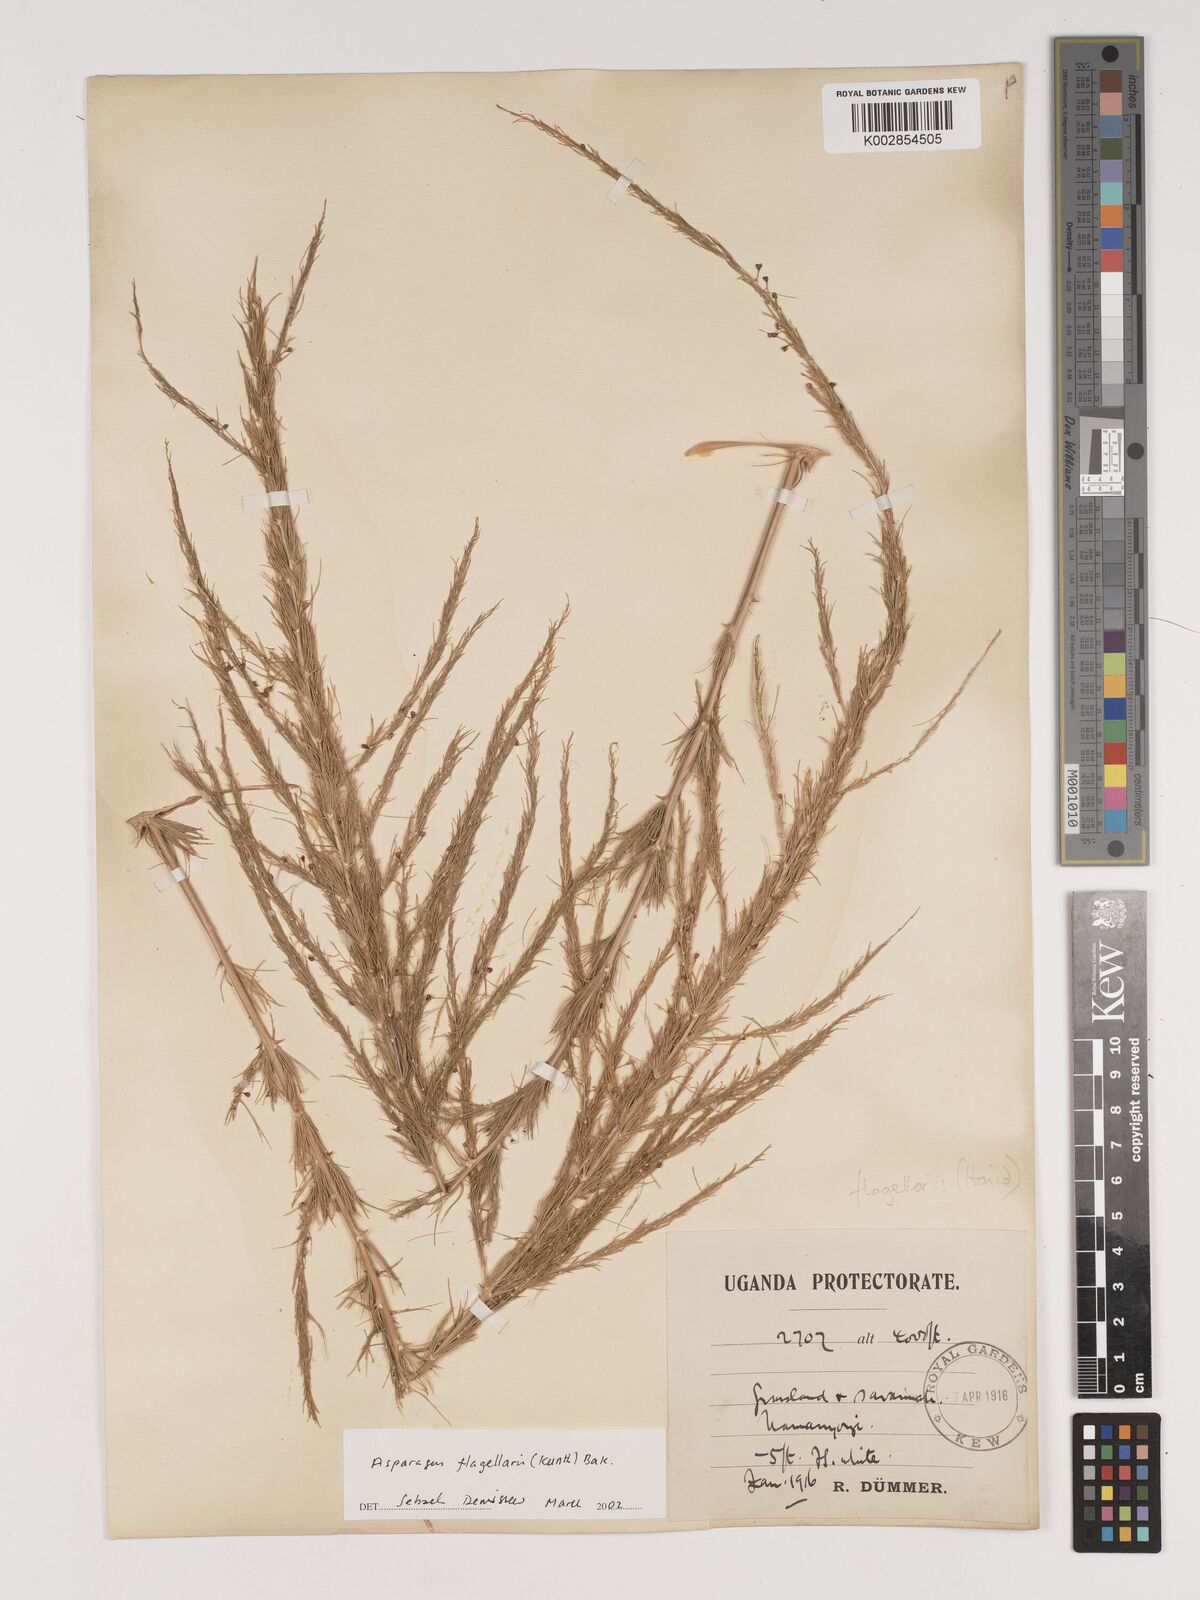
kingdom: Plantae
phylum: Tracheophyta
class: Liliopsida
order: Asparagales
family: Asparagaceae
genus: Asparagus
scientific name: Asparagus flagellaris
